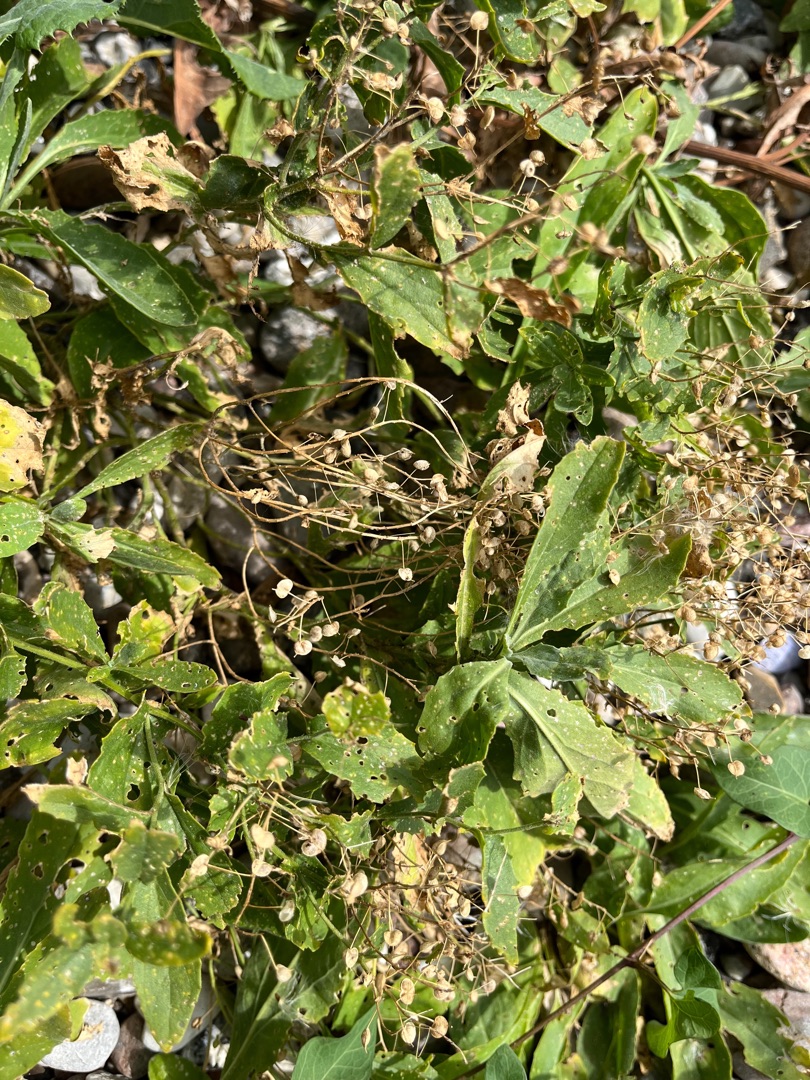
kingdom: Plantae
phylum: Tracheophyta
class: Magnoliopsida
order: Brassicales
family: Brassicaceae
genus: Lepidium
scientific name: Lepidium draba
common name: Hjerte-karse
